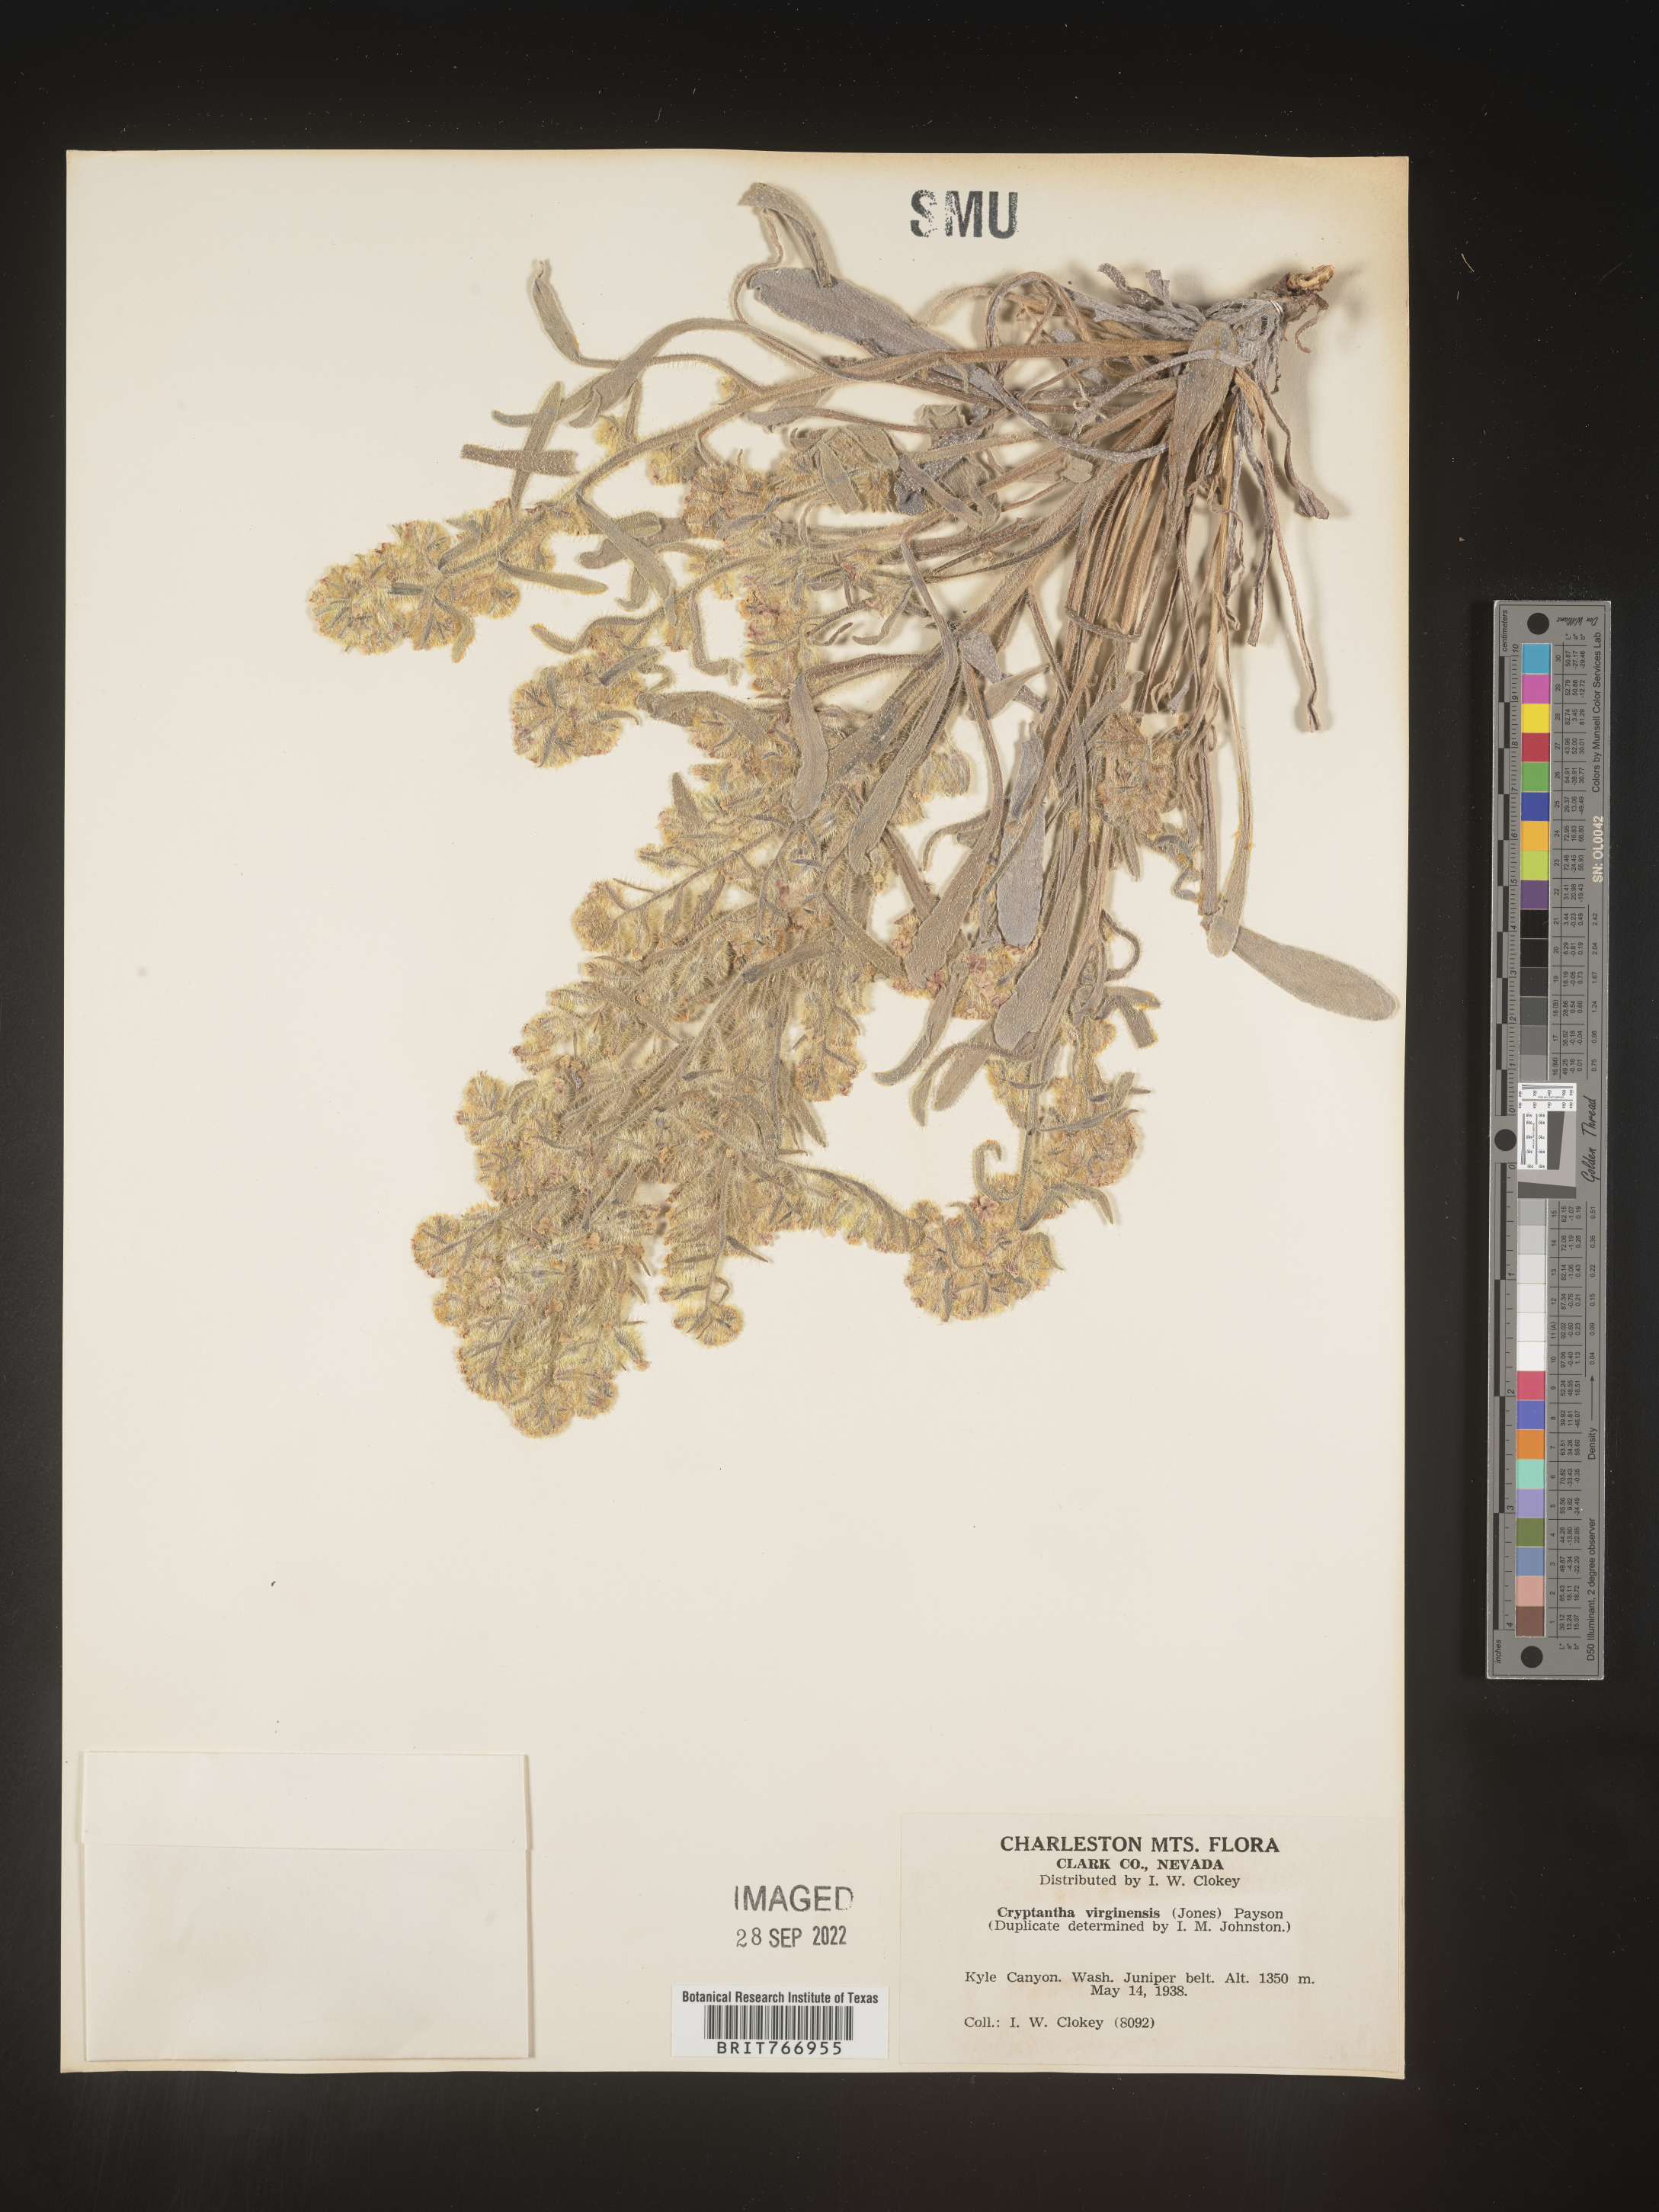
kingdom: Plantae
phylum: Tracheophyta
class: Magnoliopsida
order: Boraginales
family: Boraginaceae
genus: Cryptantha
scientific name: Cryptantha
